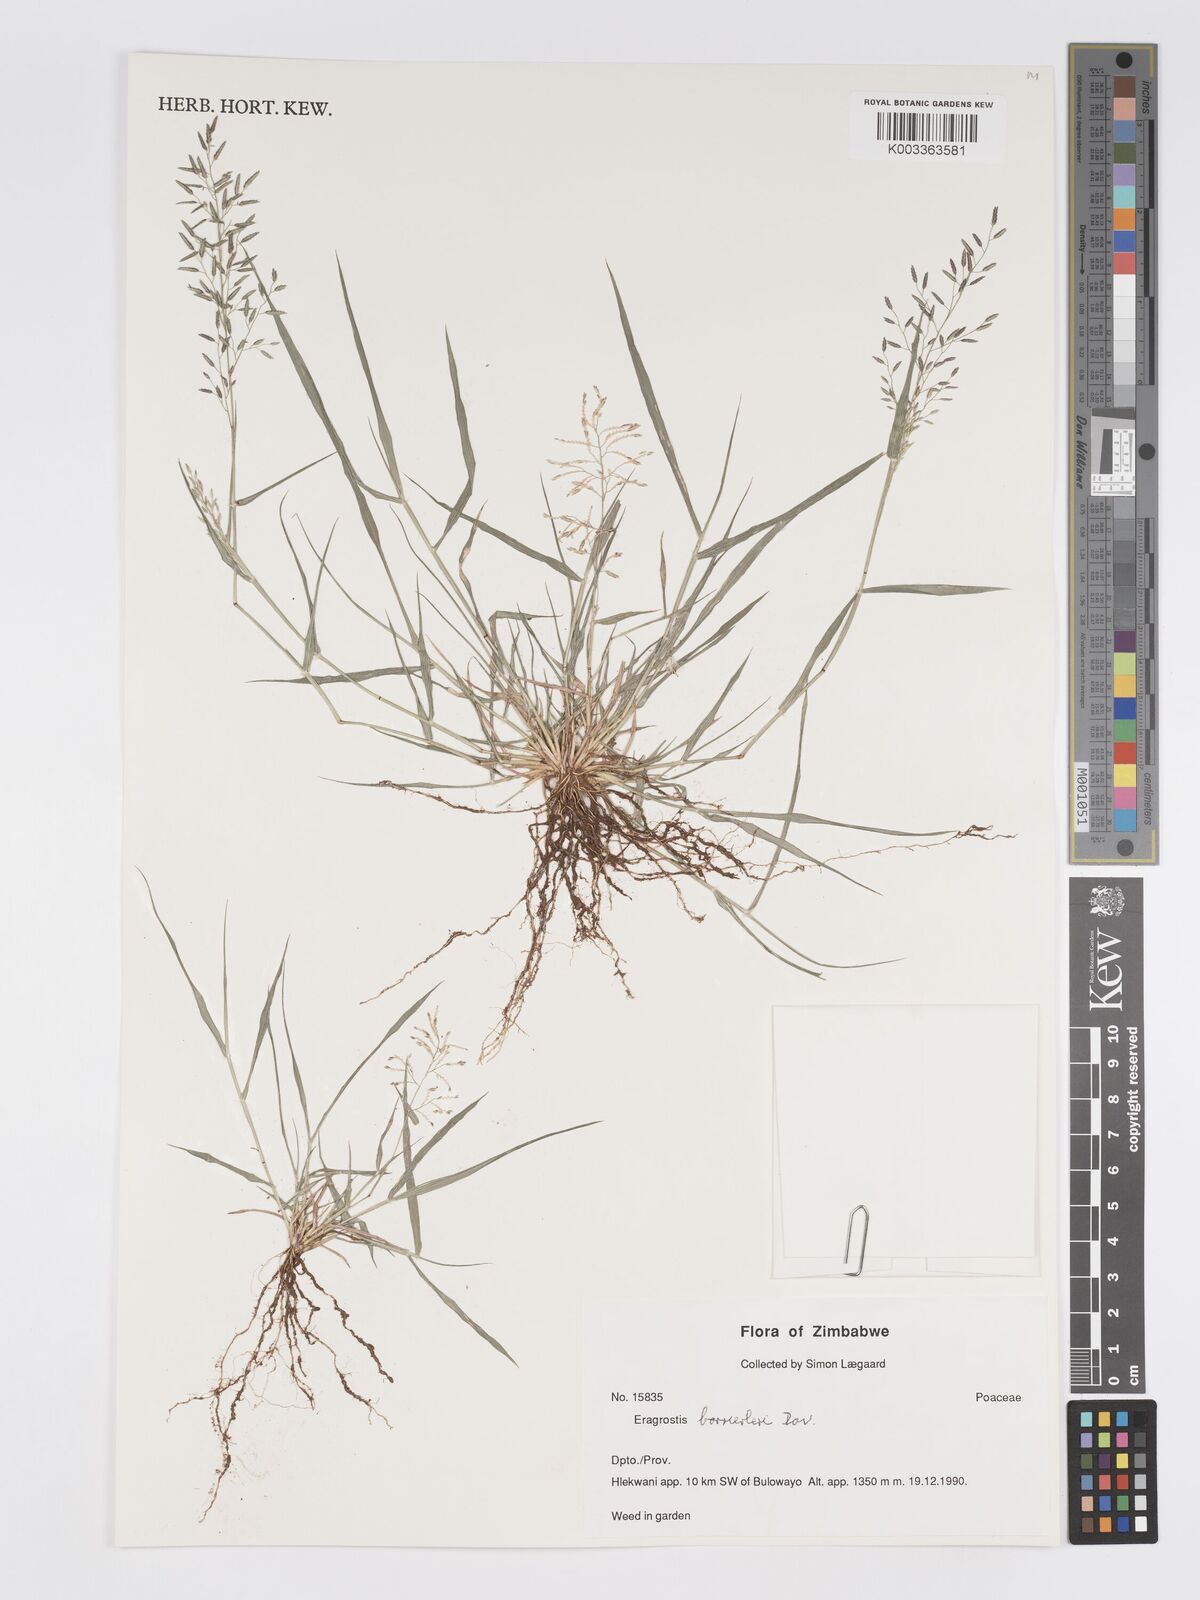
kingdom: Plantae
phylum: Tracheophyta
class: Liliopsida
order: Poales
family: Poaceae
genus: Eragrostis
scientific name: Eragrostis barrelieri
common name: Mediterranean lovegrass
